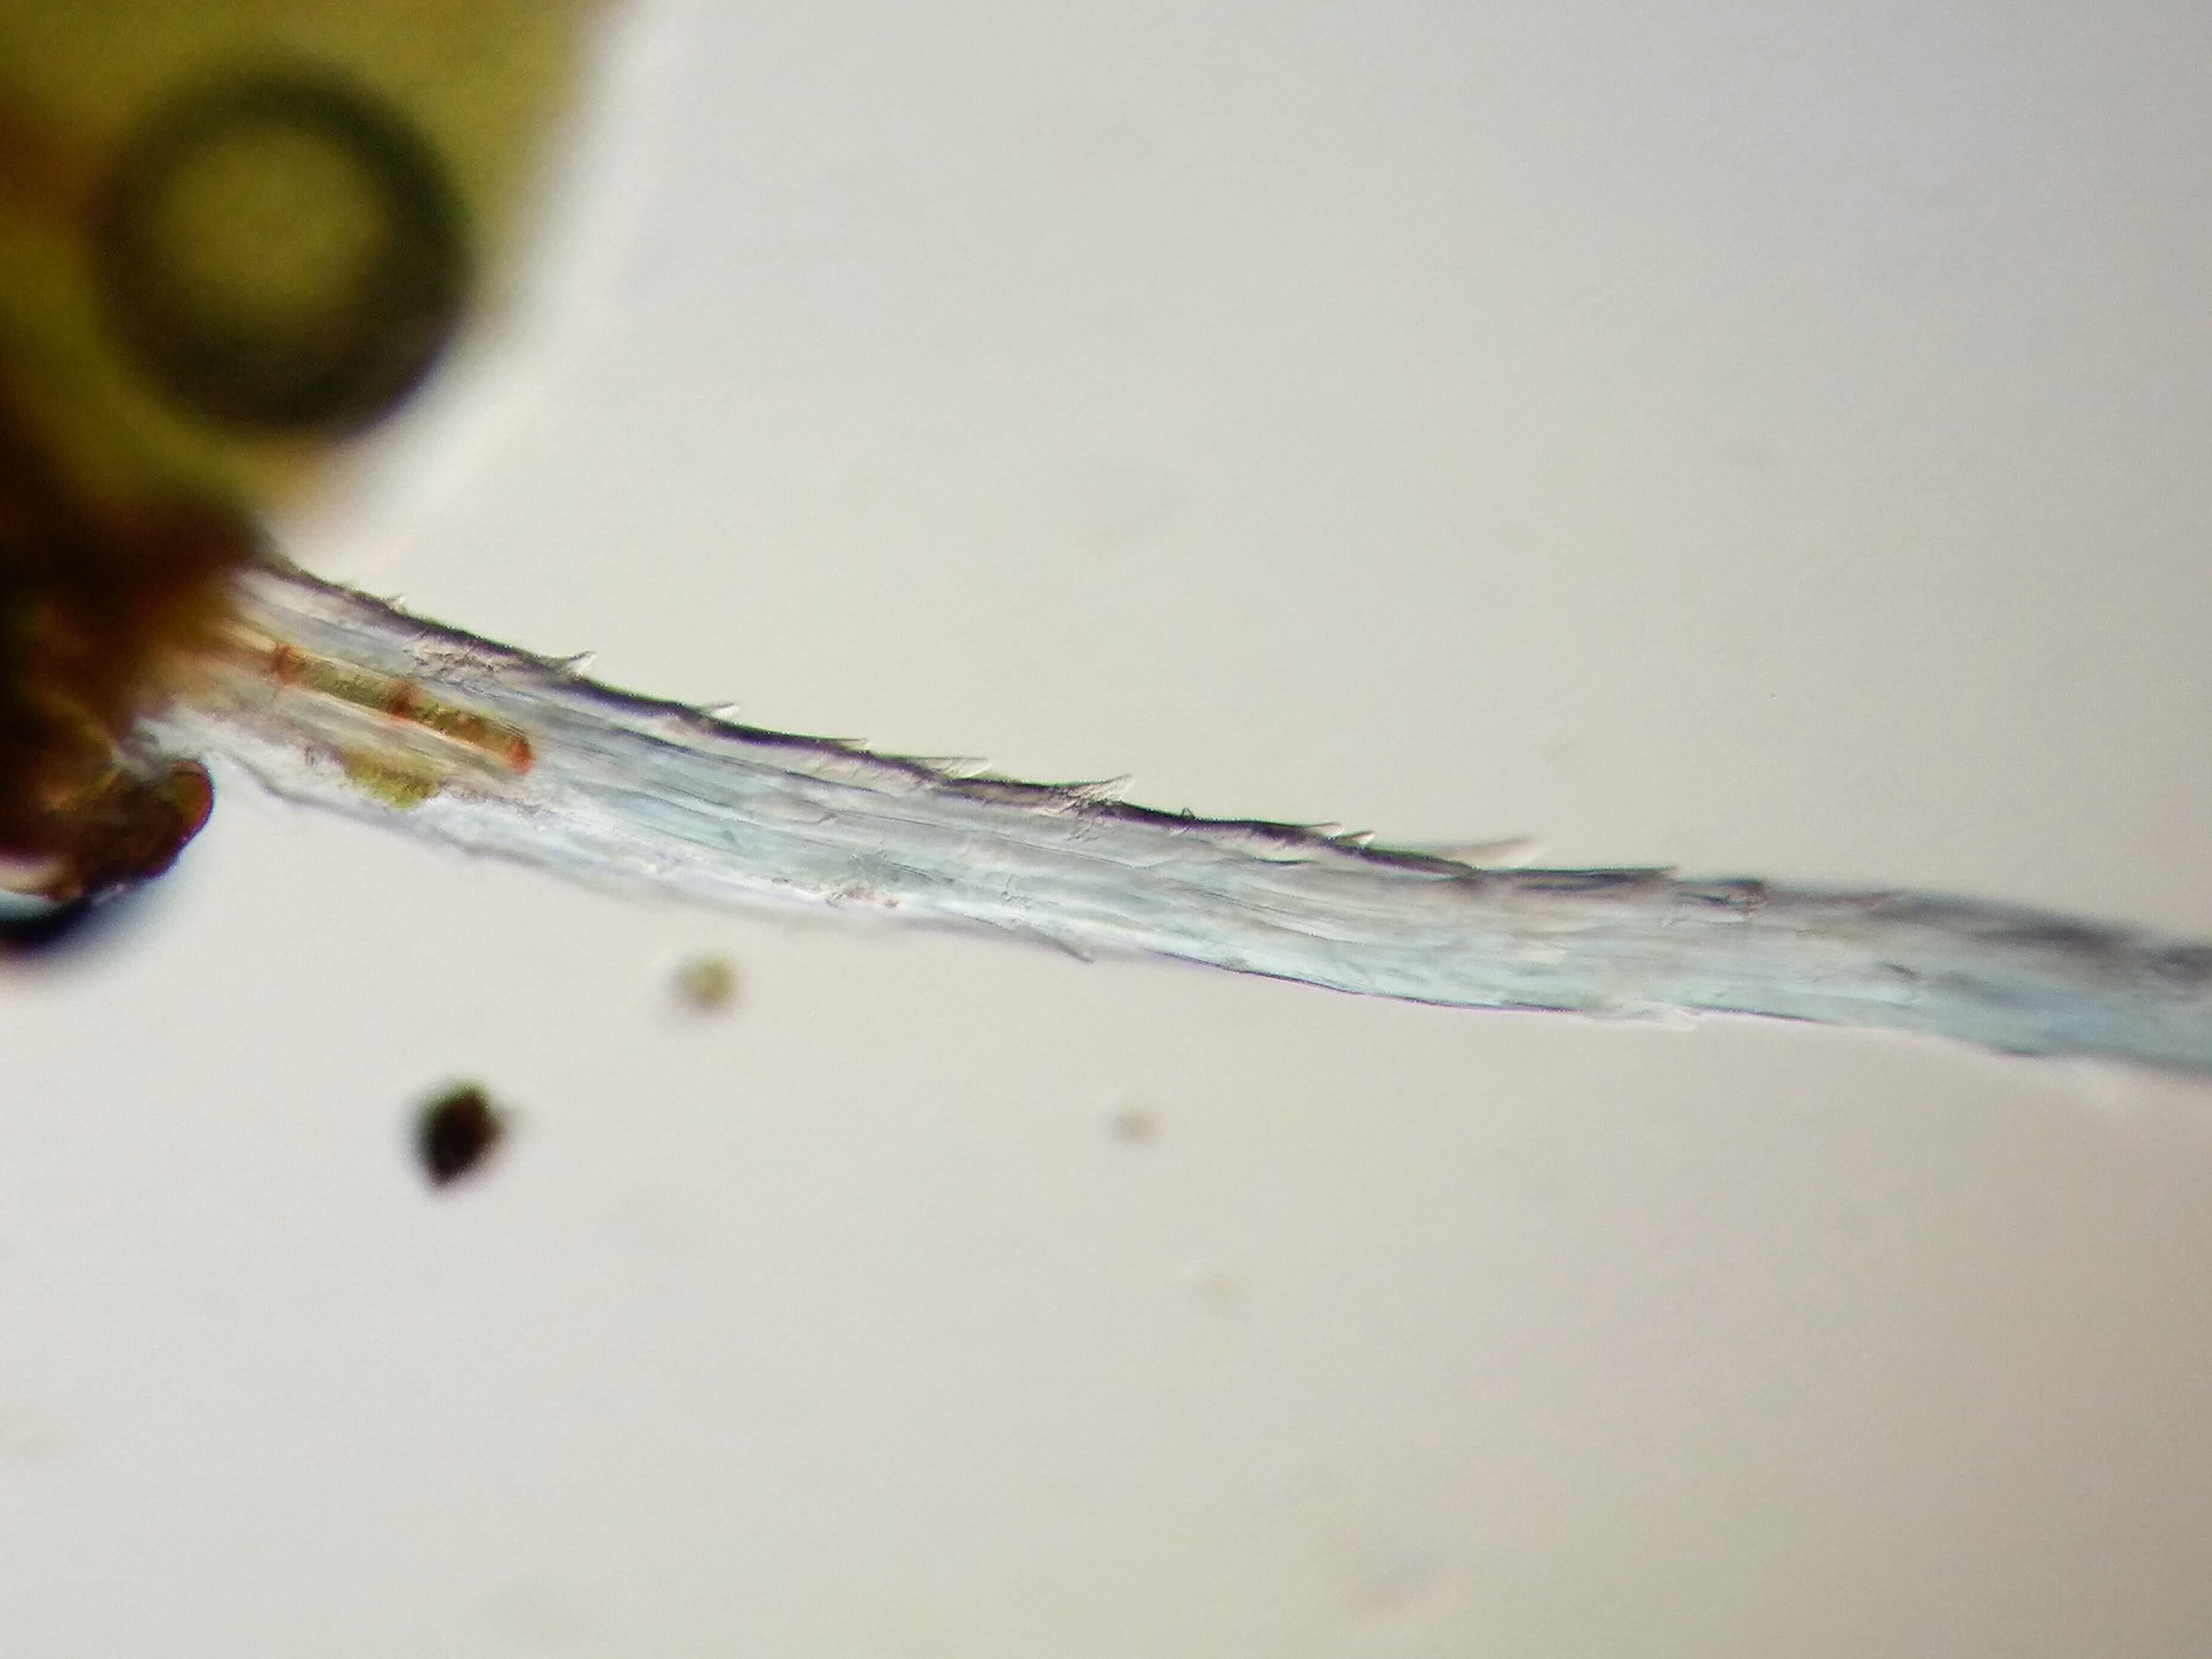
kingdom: Plantae
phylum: Bryophyta
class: Bryopsida
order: Pottiales
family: Pottiaceae
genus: Syntrichia
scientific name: Syntrichia virescens
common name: Grøn hårstjerne
